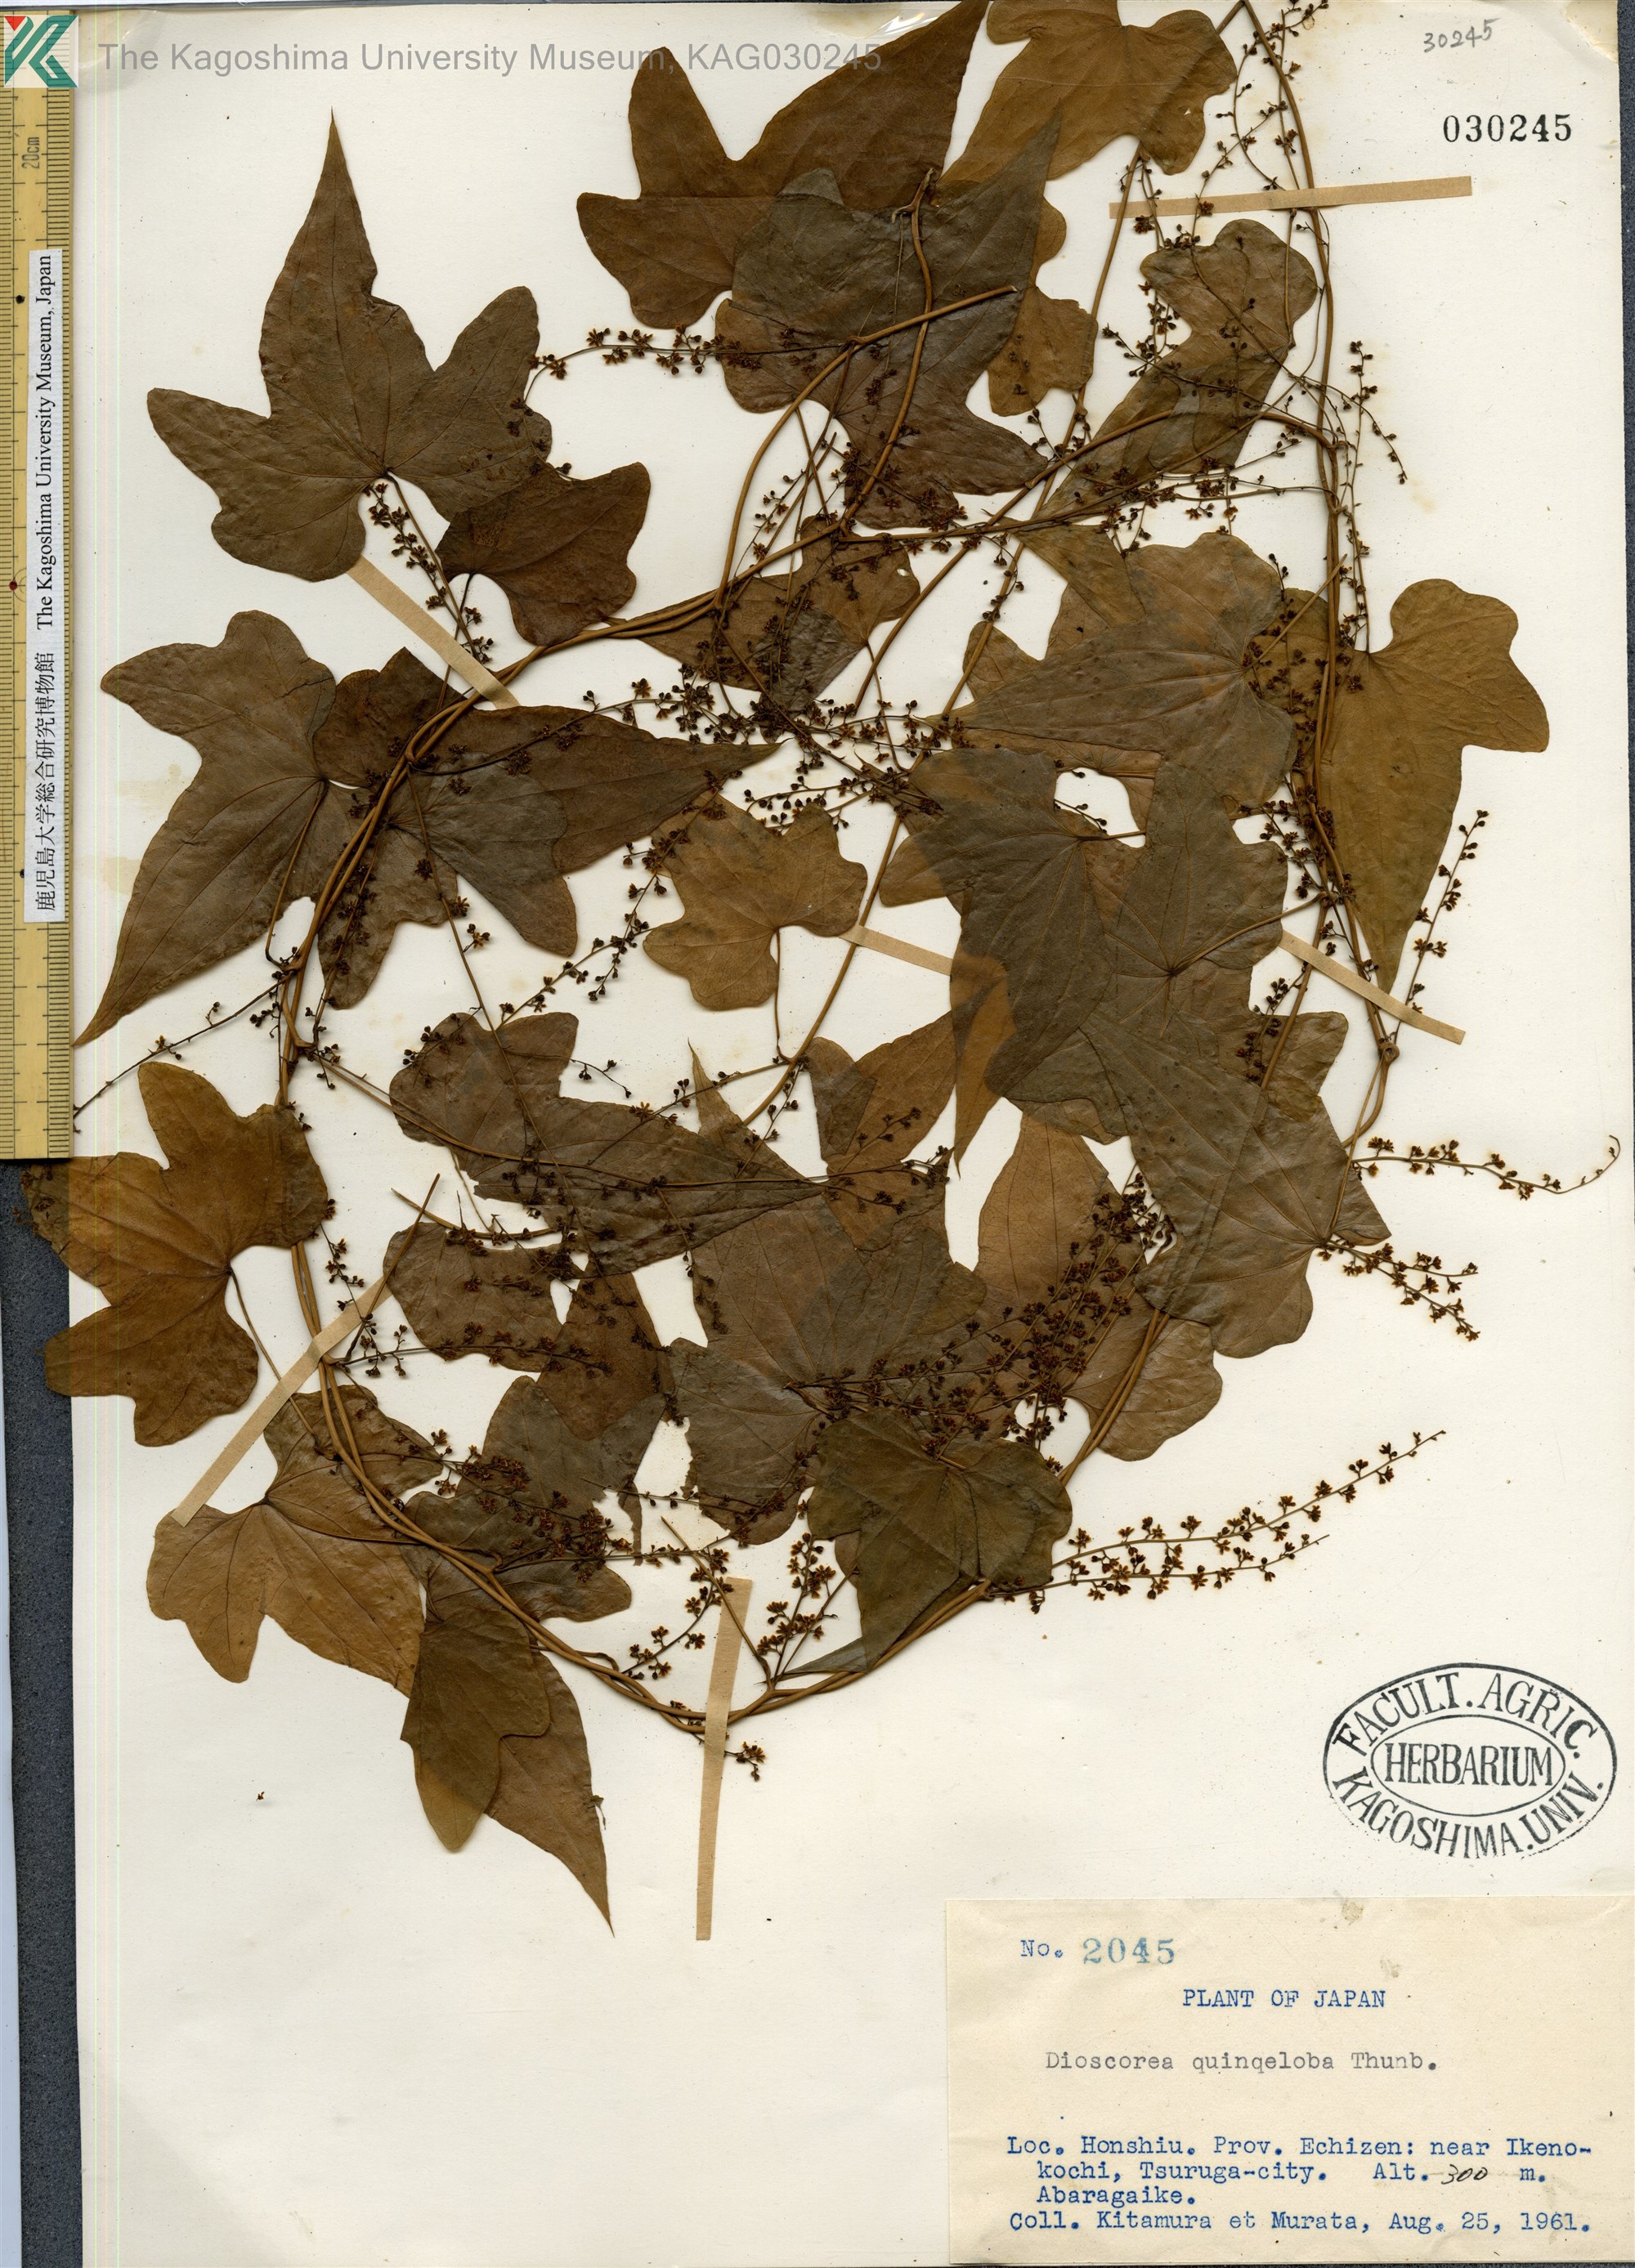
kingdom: Plantae
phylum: Tracheophyta
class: Liliopsida
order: Dioscoreales
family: Dioscoreaceae
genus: Dioscorea
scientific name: Dioscorea quinquelobata
